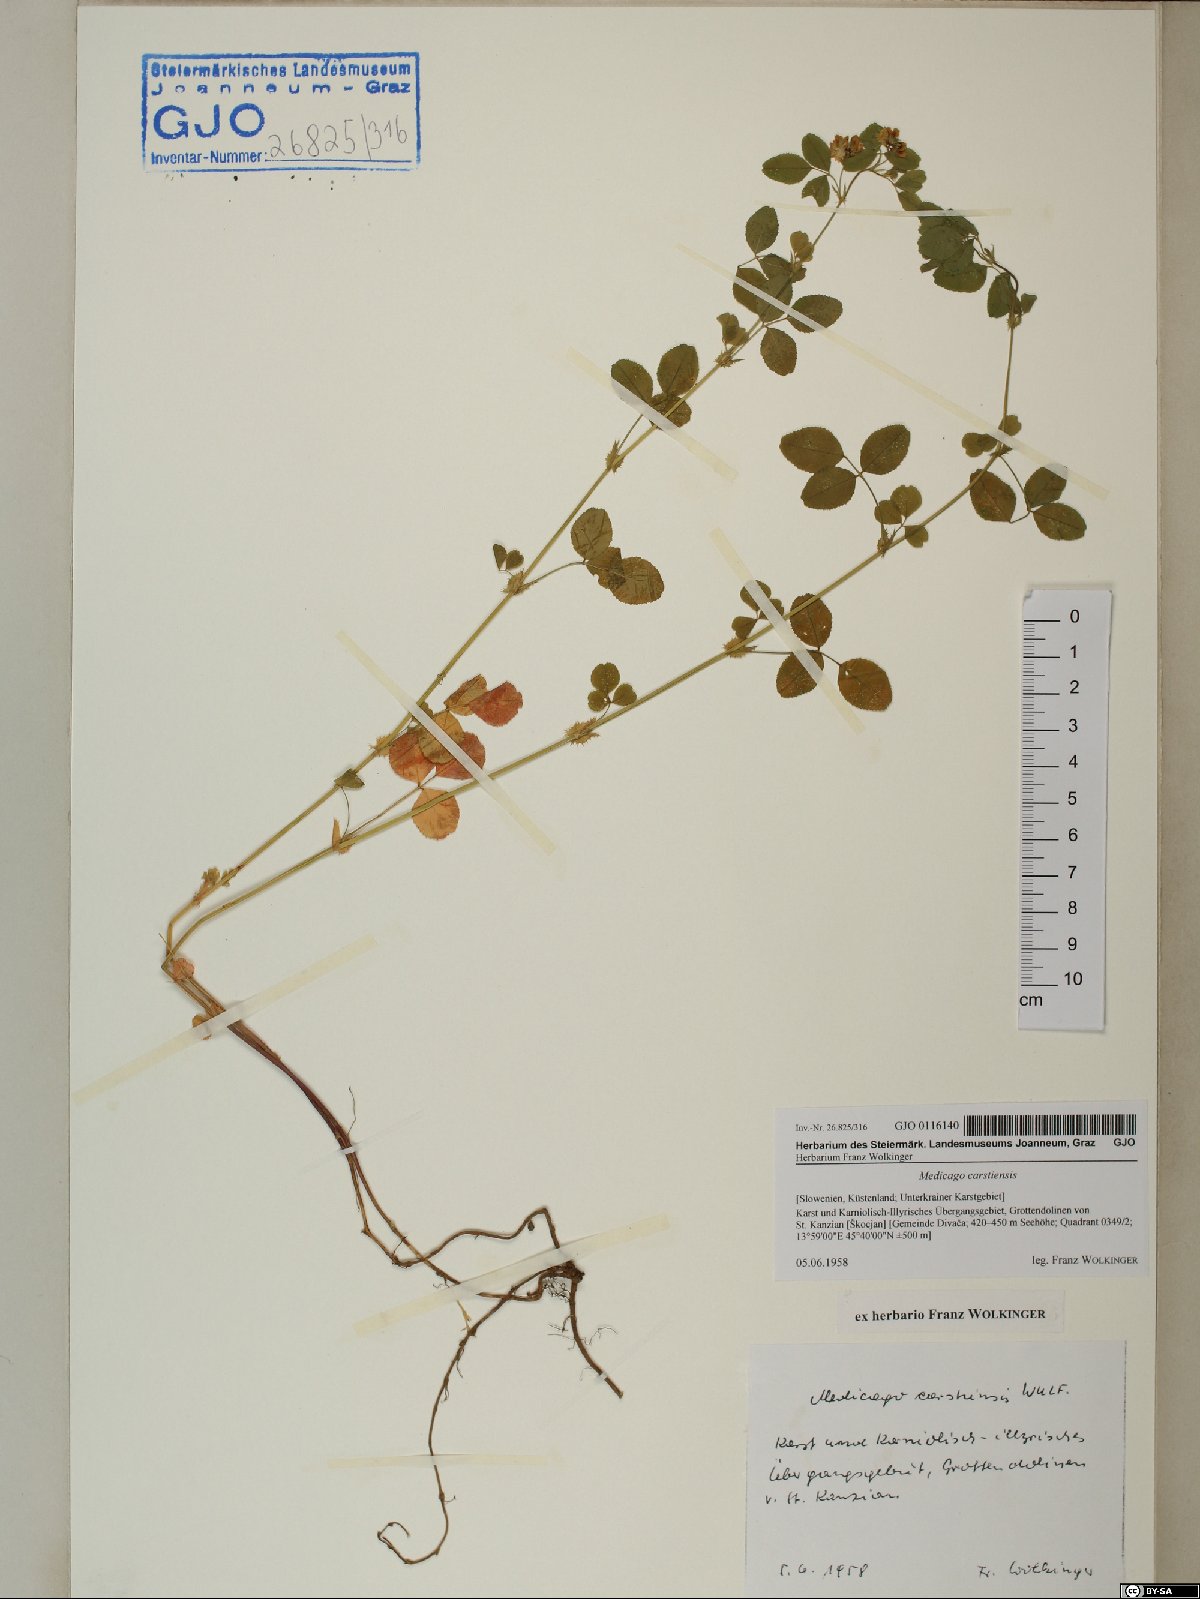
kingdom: Plantae
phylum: Tracheophyta
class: Magnoliopsida
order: Fabales
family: Fabaceae
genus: Medicago
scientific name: Medicago carstiensis
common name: Creeping-rooted medic
